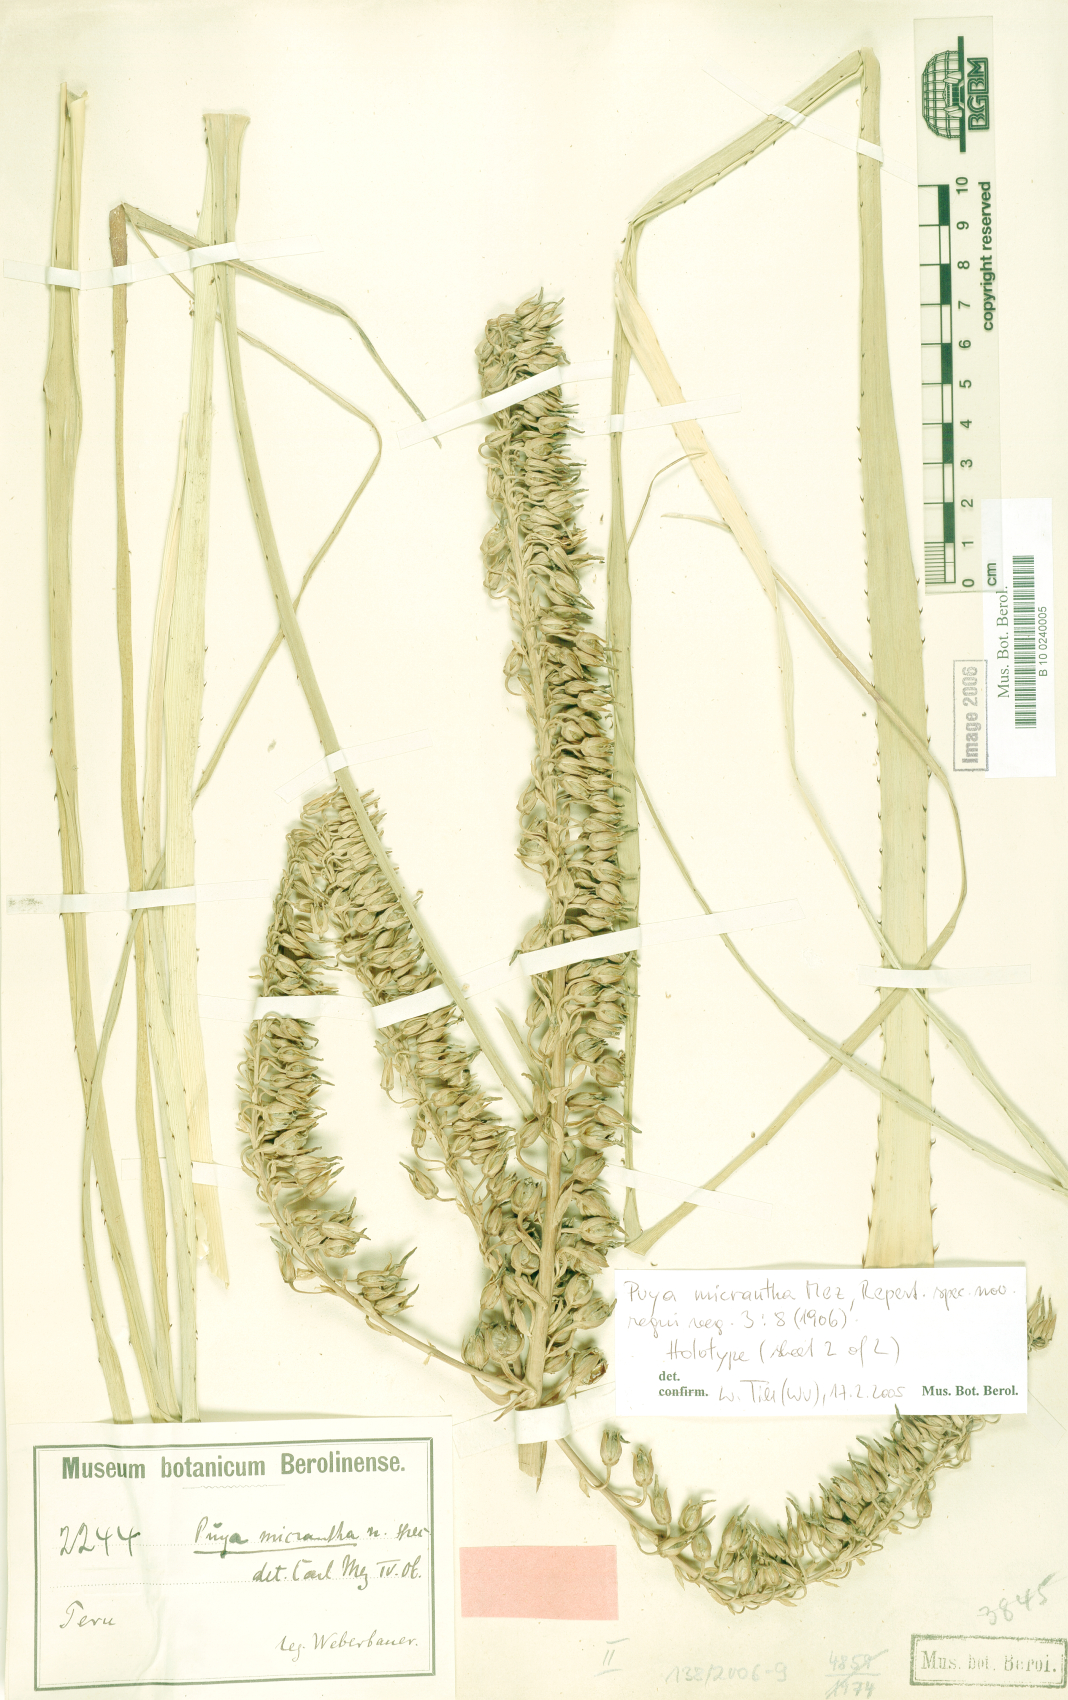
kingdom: Plantae
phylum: Tracheophyta
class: Liliopsida
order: Poales
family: Bromeliaceae
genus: Puya
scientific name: Puya micrantha
